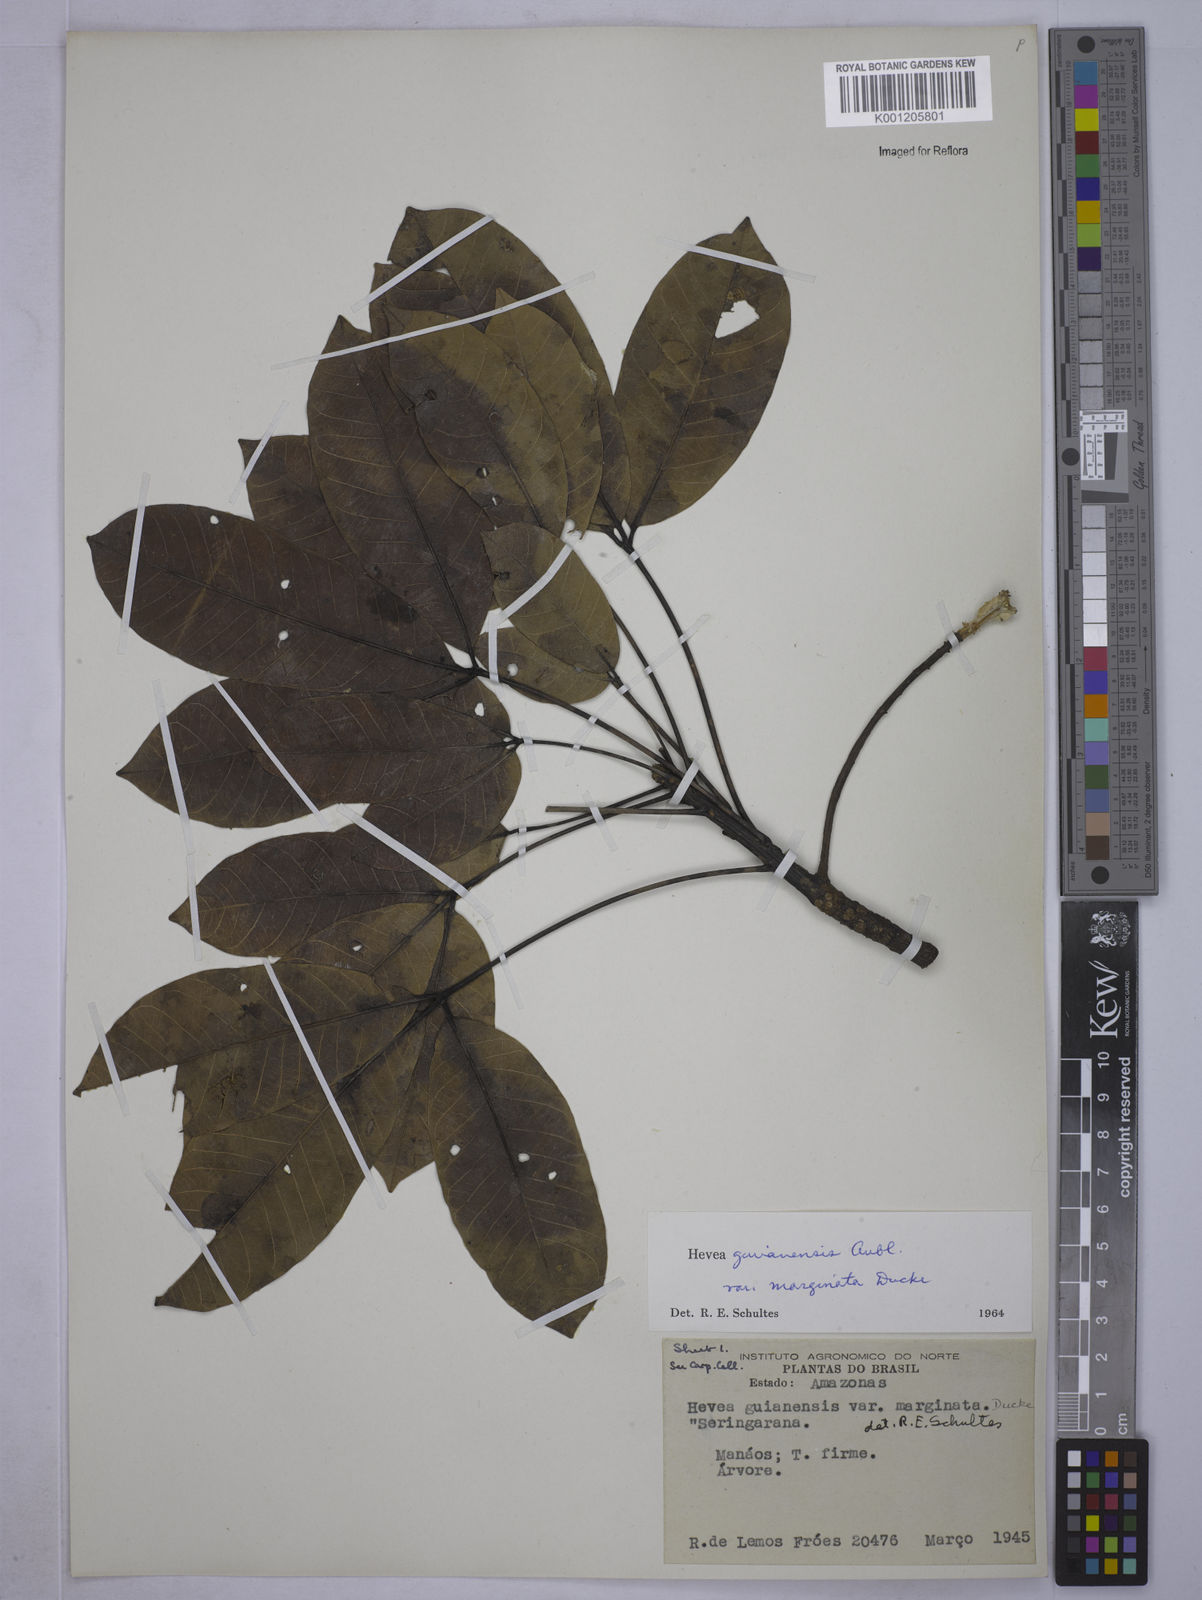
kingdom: Plantae
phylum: Tracheophyta
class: Magnoliopsida
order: Malpighiales
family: Euphorbiaceae
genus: Hevea
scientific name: Hevea guianensis
